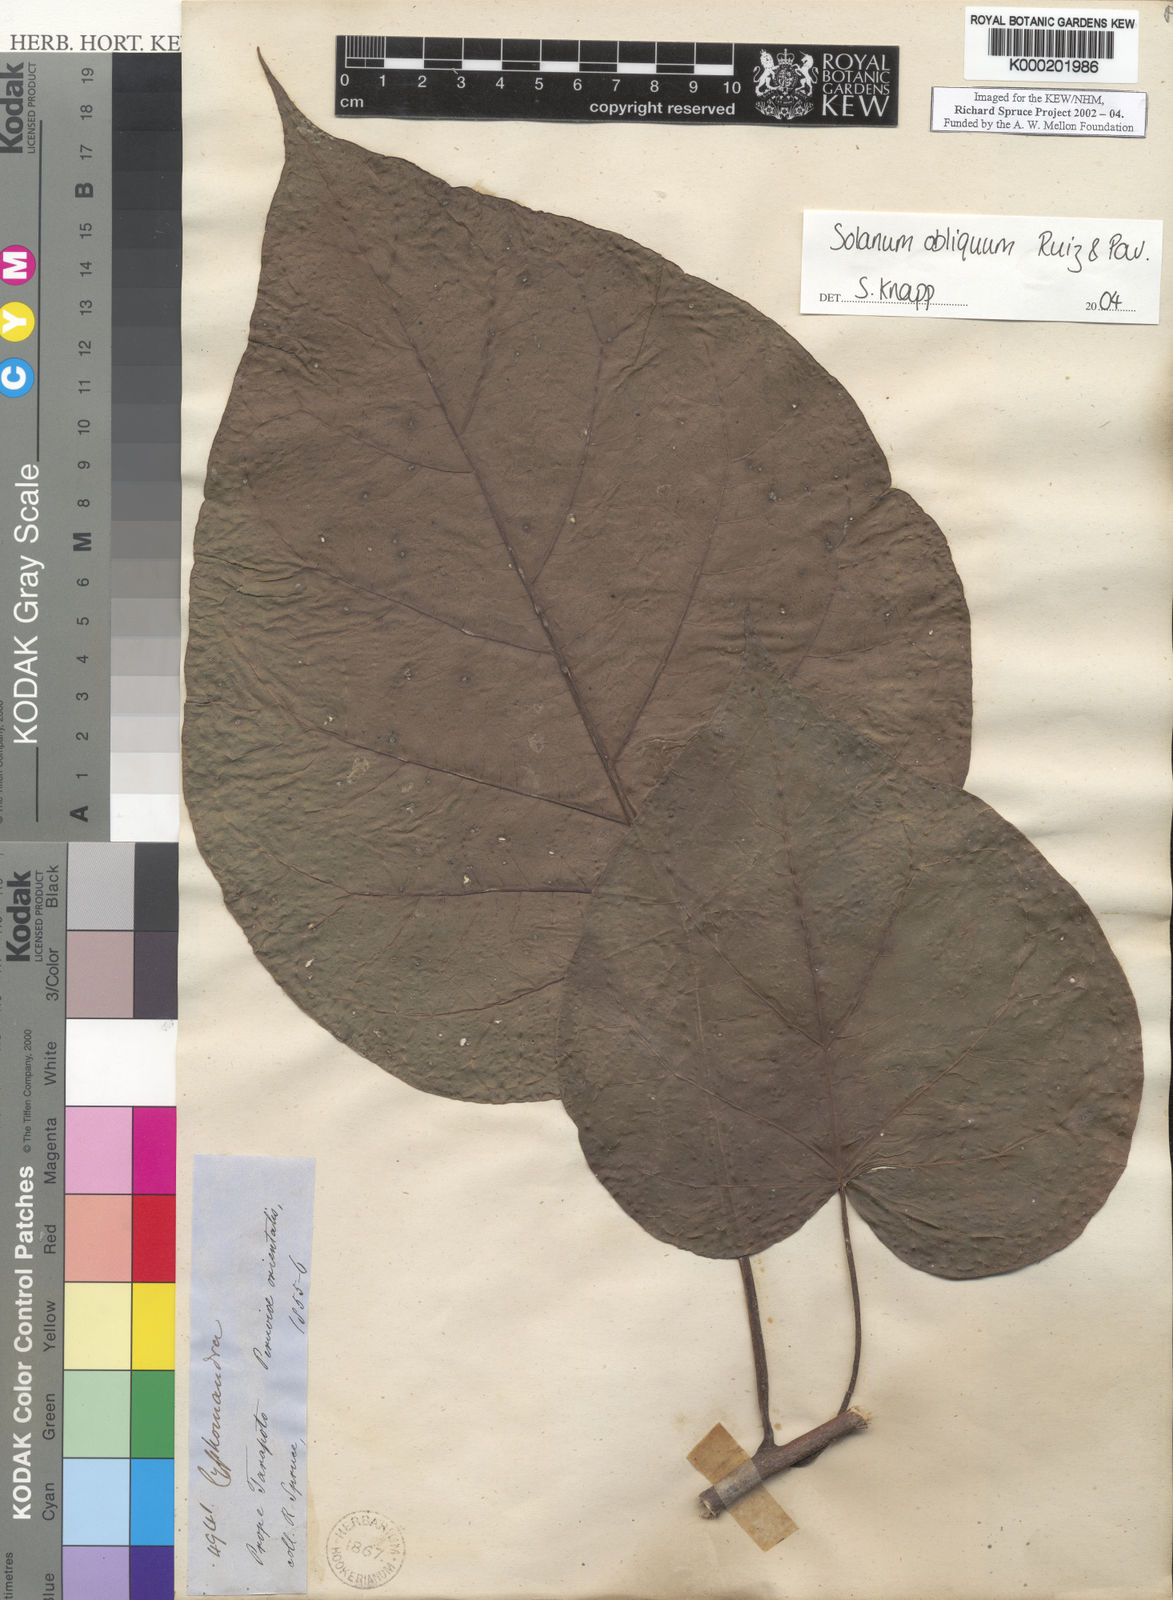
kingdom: Plantae
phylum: Tracheophyta
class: Magnoliopsida
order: Solanales
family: Solanaceae
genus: Solanum
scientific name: Solanum obliquum
